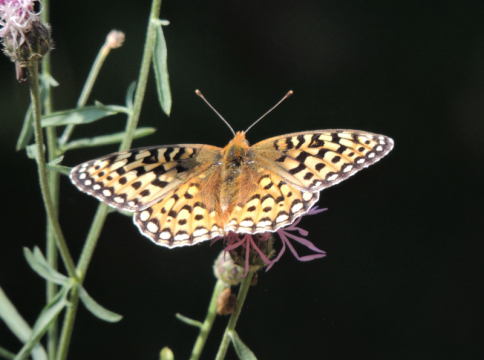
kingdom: Animalia
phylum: Arthropoda
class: Insecta
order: Lepidoptera
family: Nymphalidae
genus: Speyeria
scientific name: Speyeria coronis
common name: Coronis Fritillary
